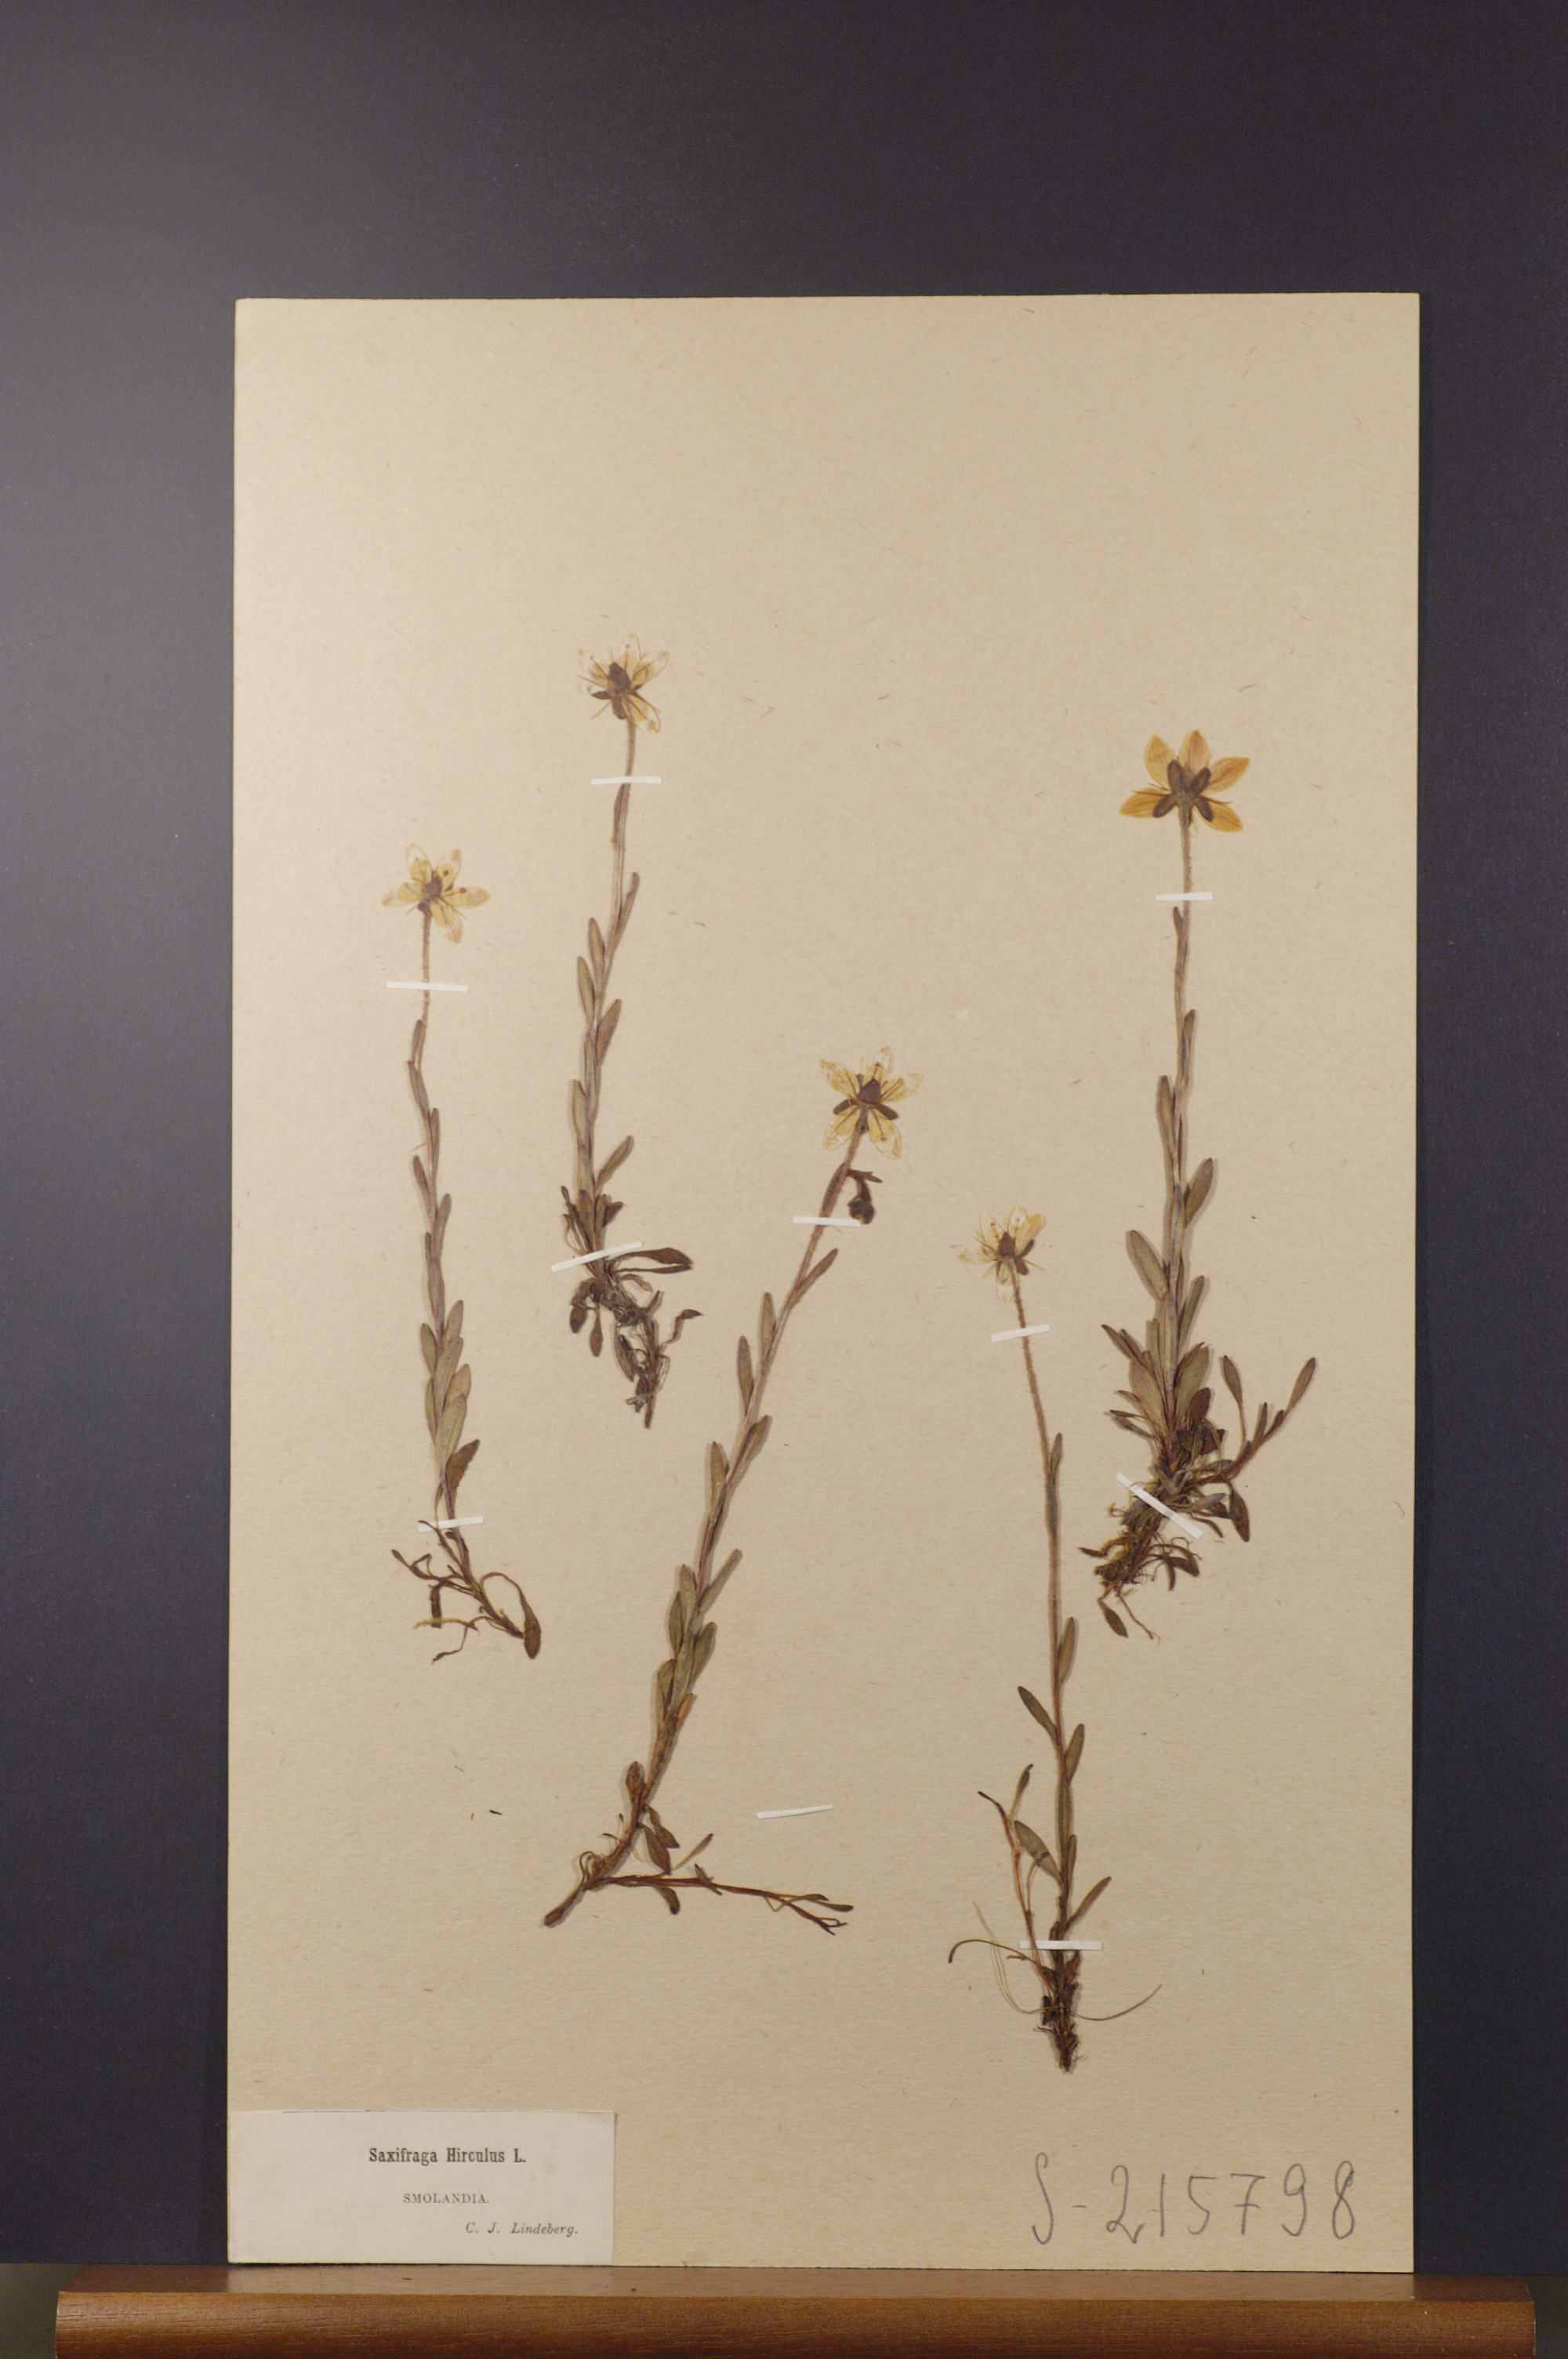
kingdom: Plantae
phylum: Tracheophyta
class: Magnoliopsida
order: Saxifragales
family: Saxifragaceae
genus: Saxifraga
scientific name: Saxifraga hirculus
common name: Yellow marsh saxifrage
